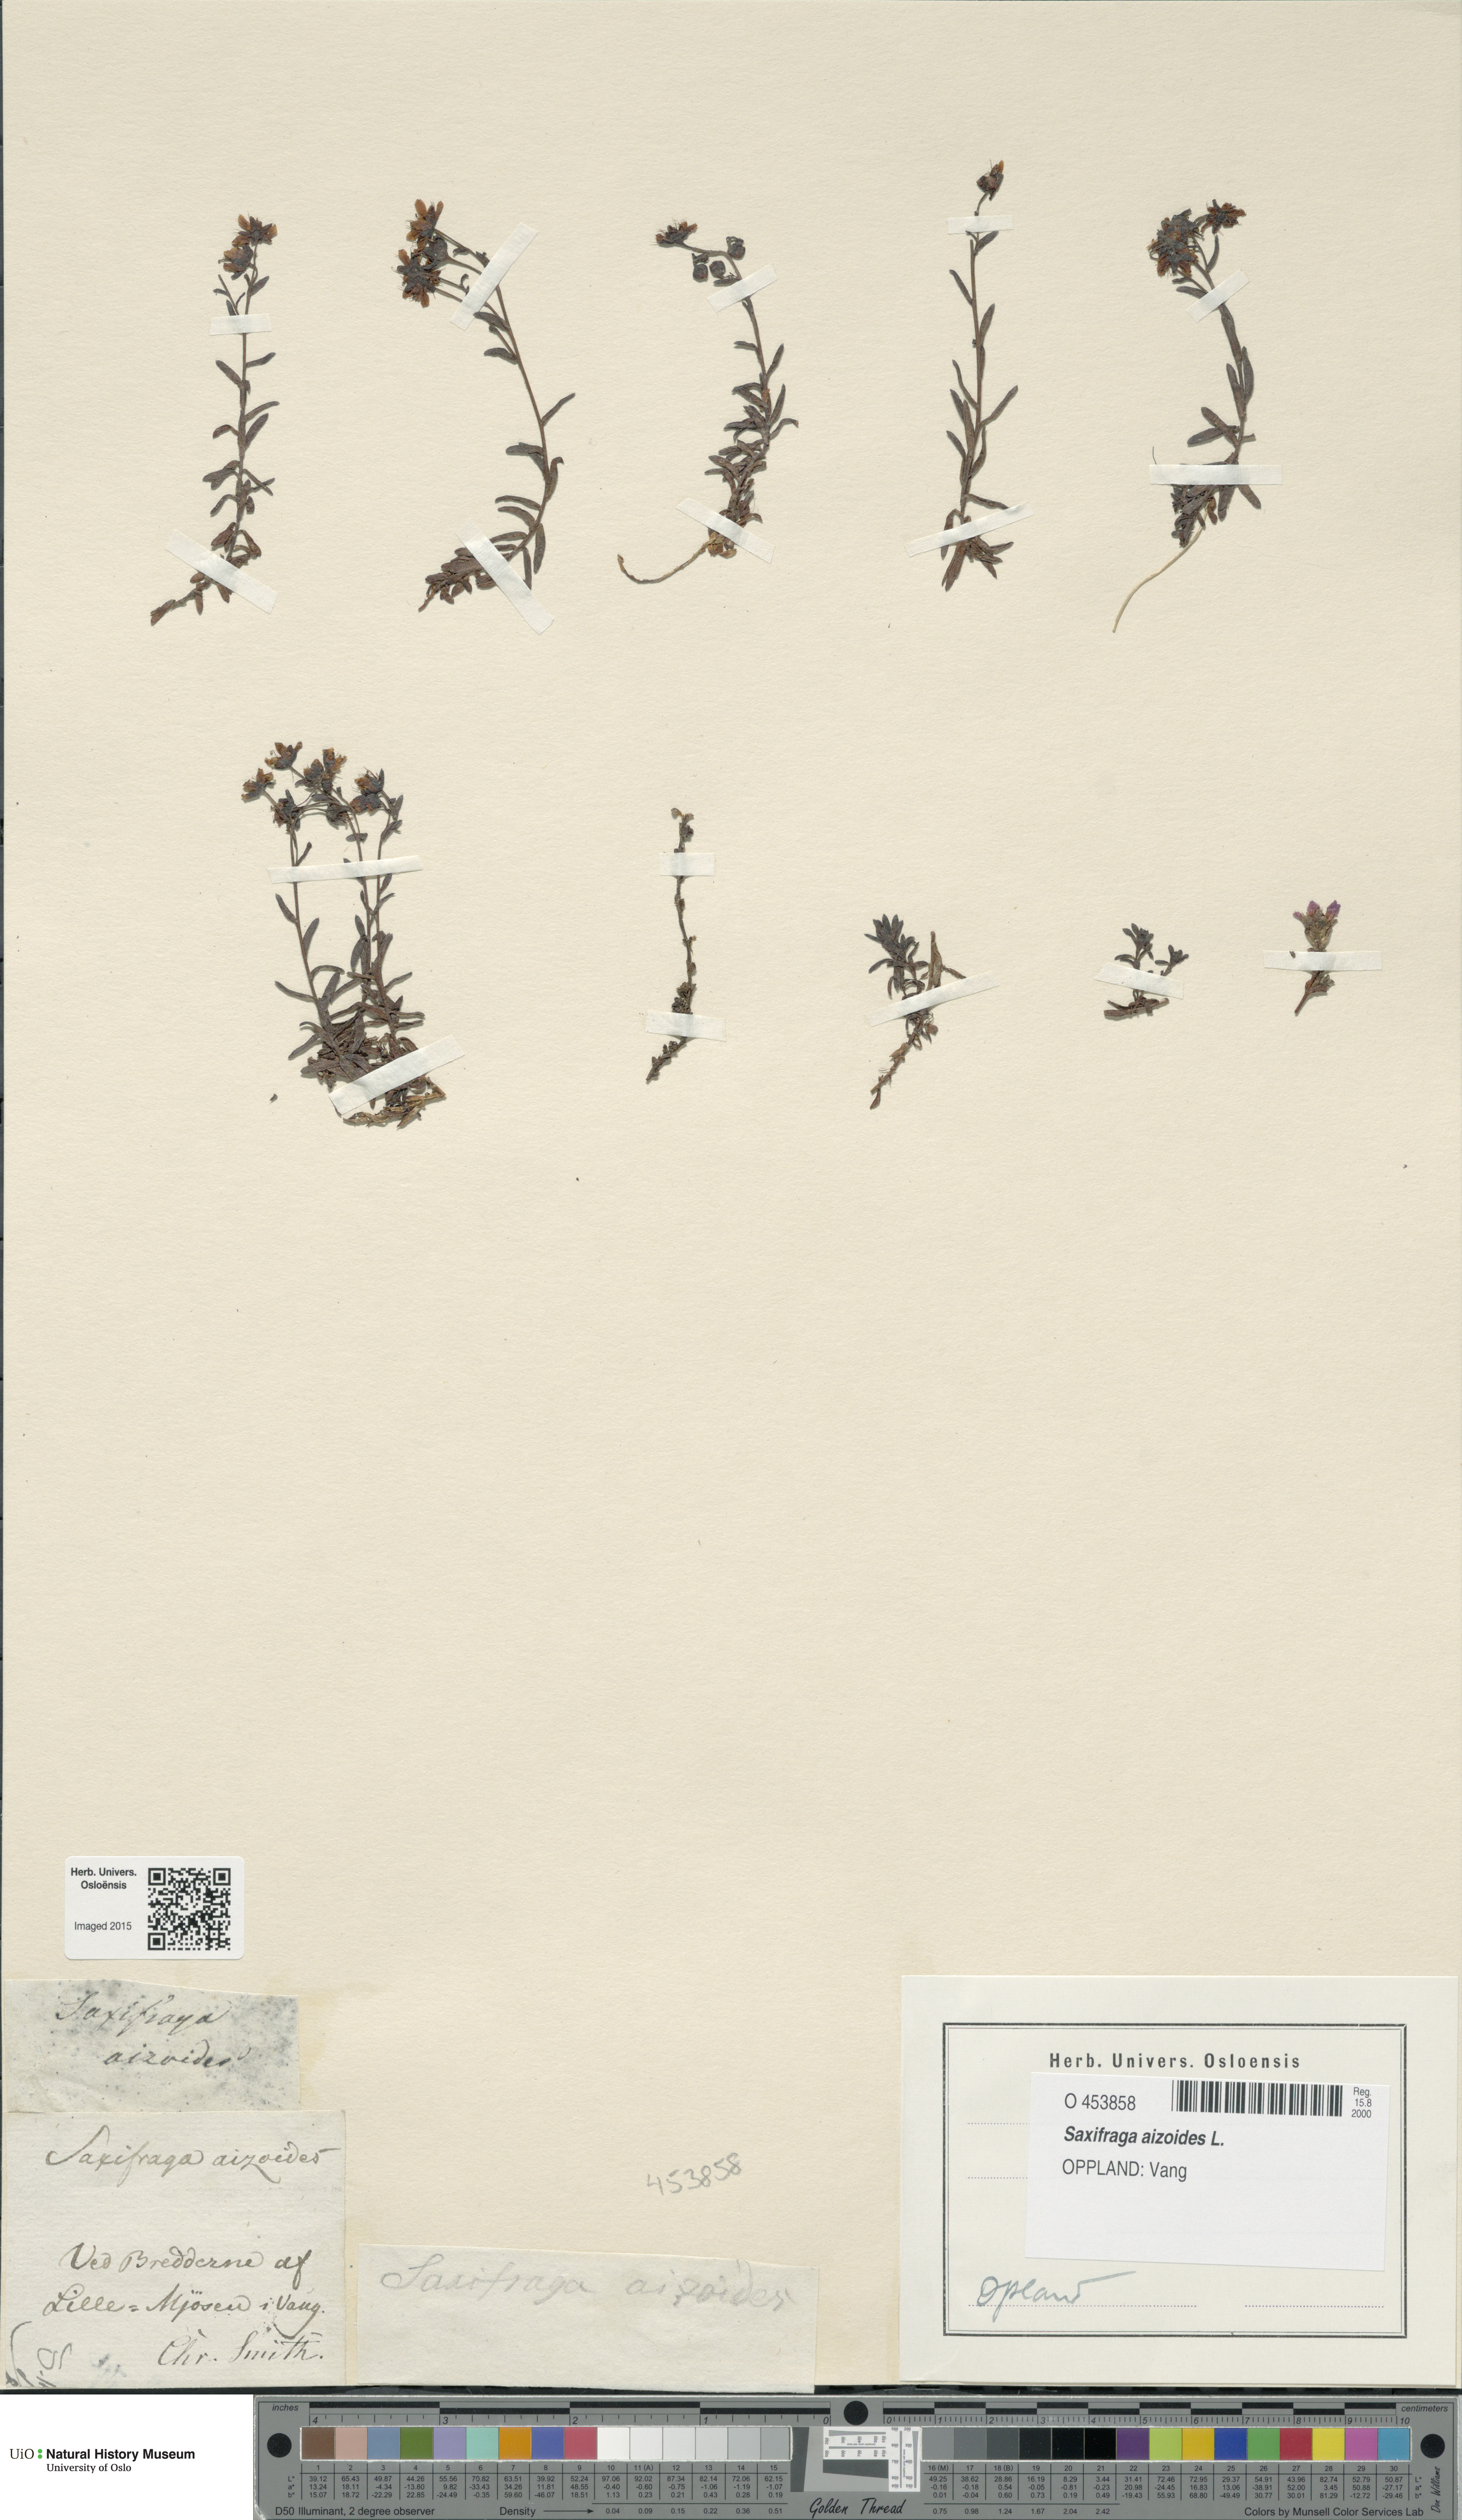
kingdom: Plantae
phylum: Tracheophyta
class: Magnoliopsida
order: Saxifragales
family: Saxifragaceae
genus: Saxifraga
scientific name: Saxifraga aizoides
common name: Yellow mountain saxifrage
